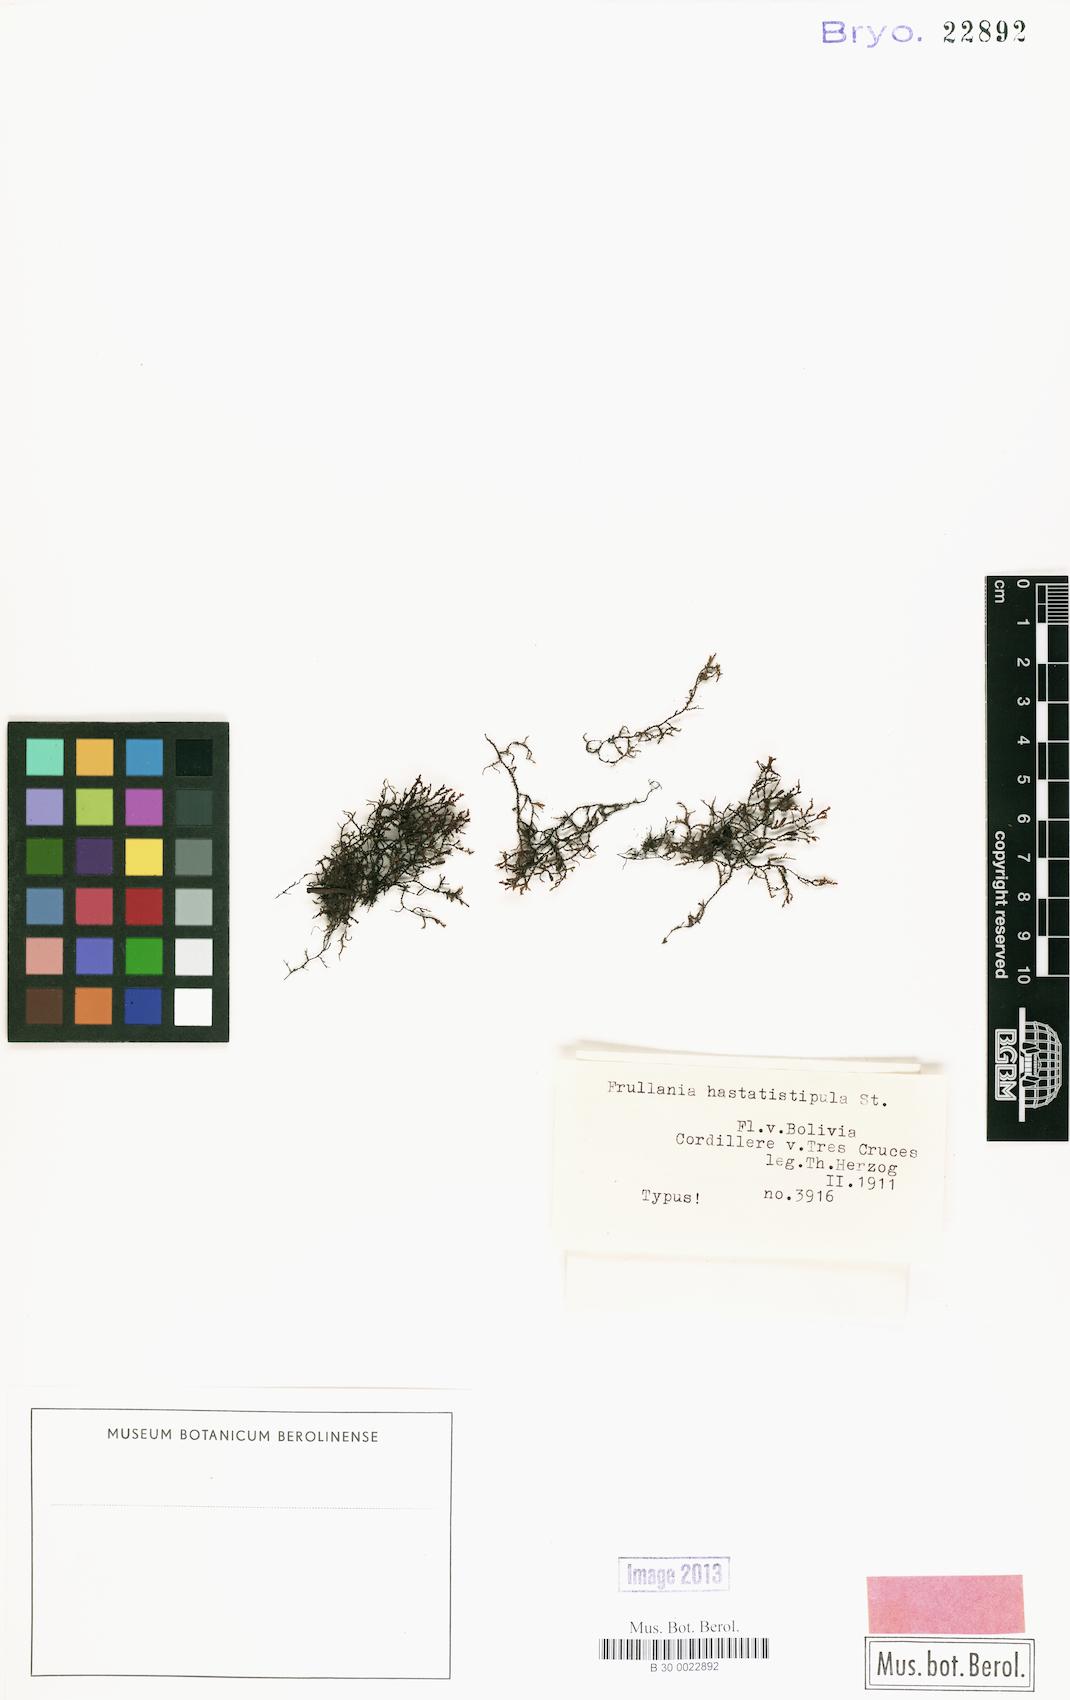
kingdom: Plantae
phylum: Marchantiophyta
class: Jungermanniopsida
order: Porellales
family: Frullaniaceae
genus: Frullania
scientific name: Frullania brasiliensis
